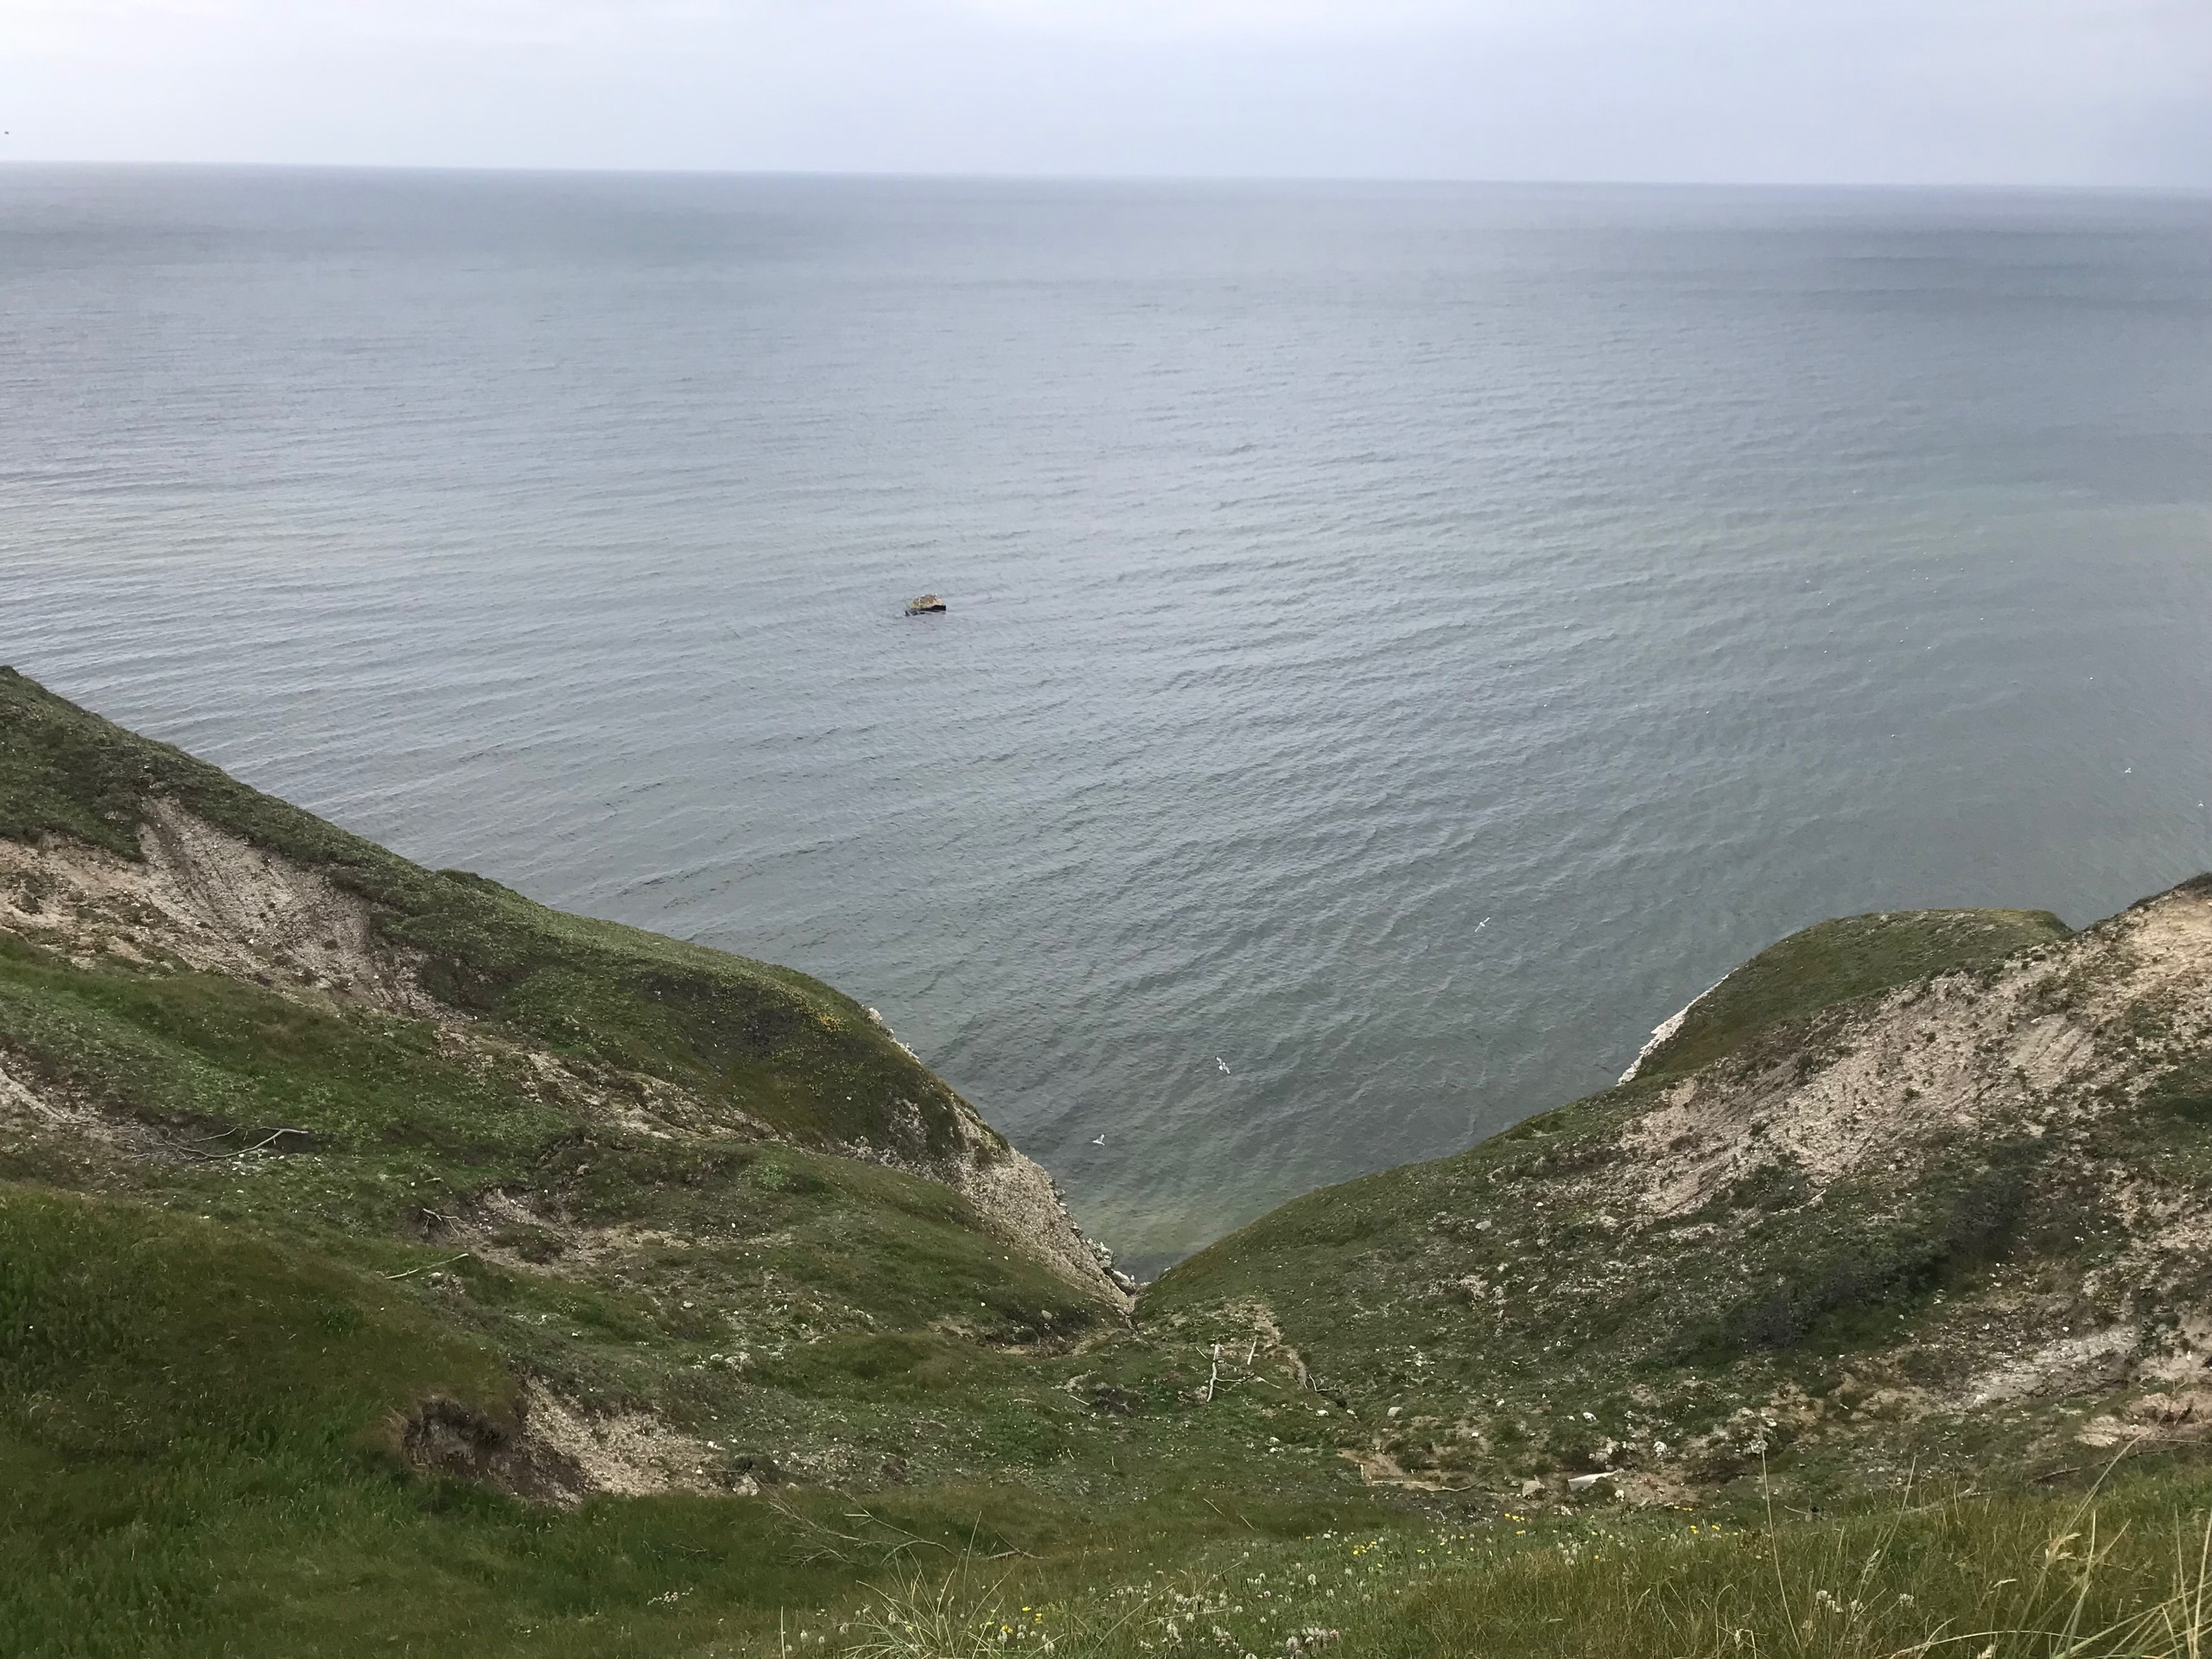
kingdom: Animalia
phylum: Chordata
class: Aves
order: Charadriiformes
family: Laridae
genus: Rissa
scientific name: Rissa tridactyla
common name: Ride
